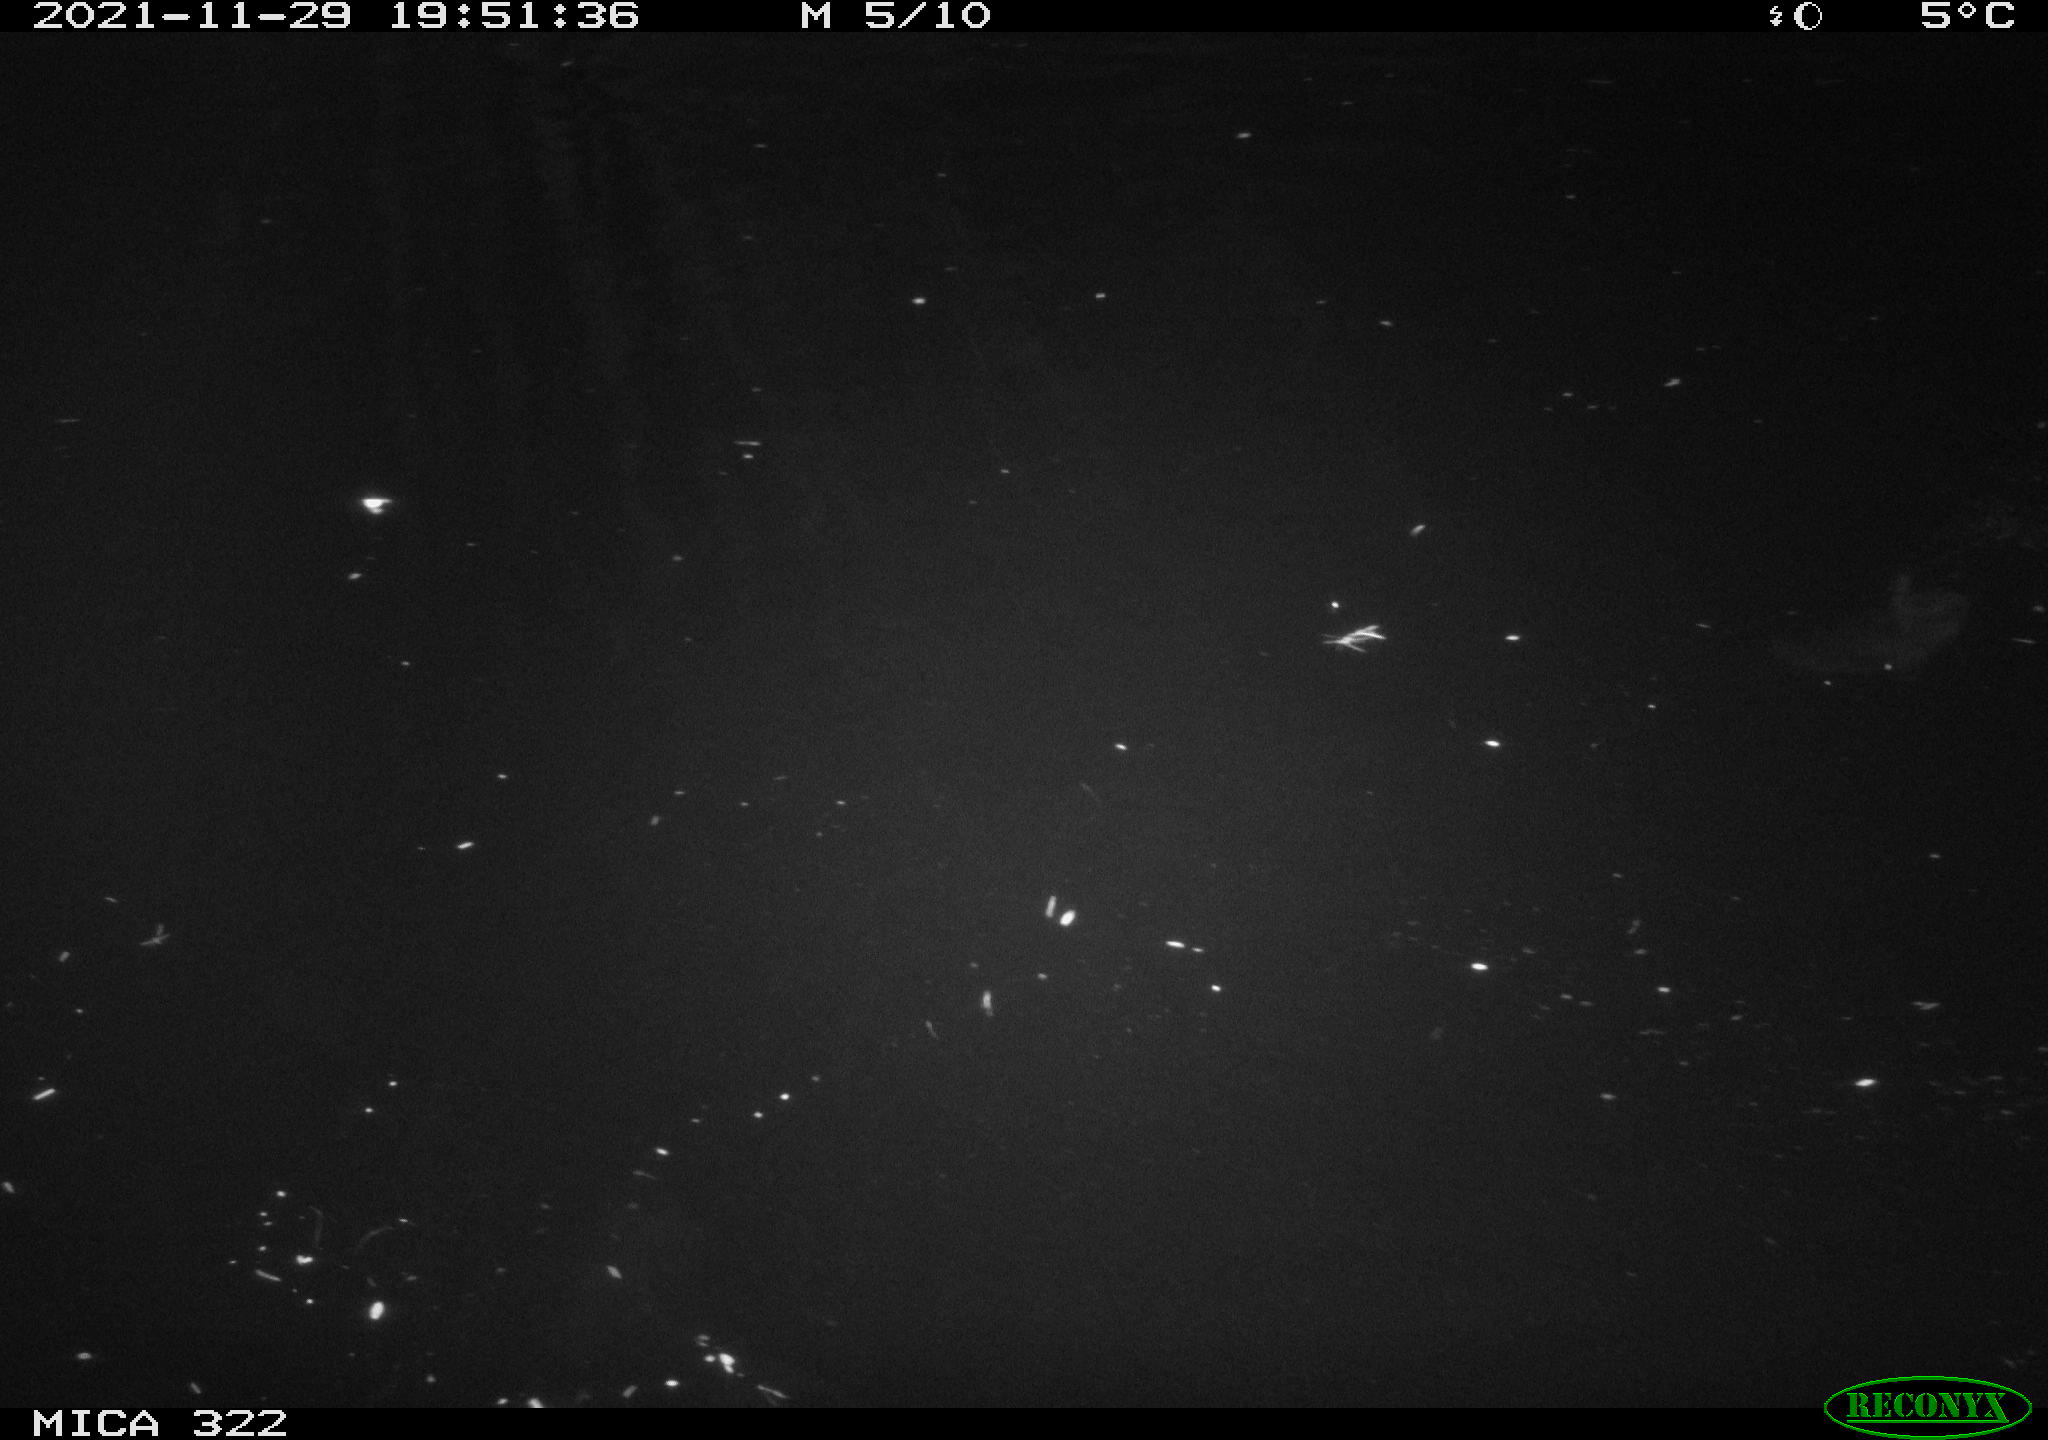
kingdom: Animalia
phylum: Chordata
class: Aves
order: Anseriformes
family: Anatidae
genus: Anas
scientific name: Anas platyrhynchos
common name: Mallard
